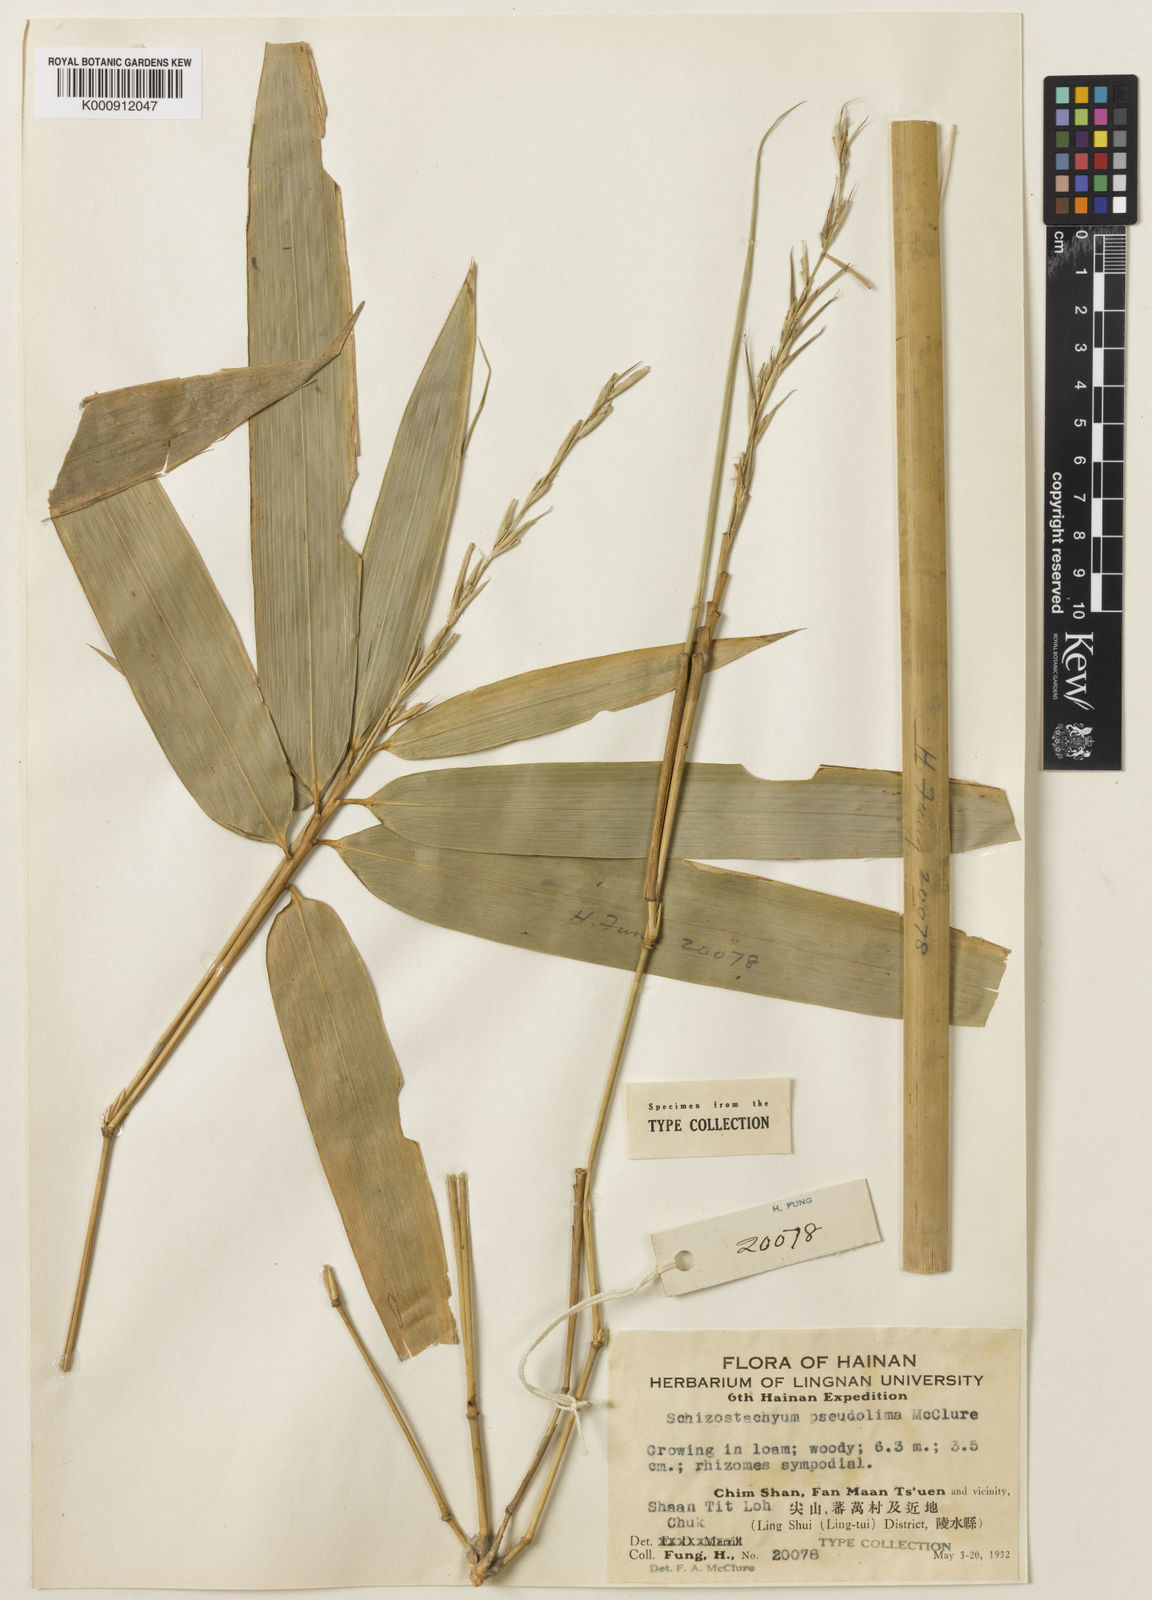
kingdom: Plantae
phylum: Tracheophyta
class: Liliopsida
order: Poales
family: Poaceae
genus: Schizostachyum
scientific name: Schizostachyum pseudolima
